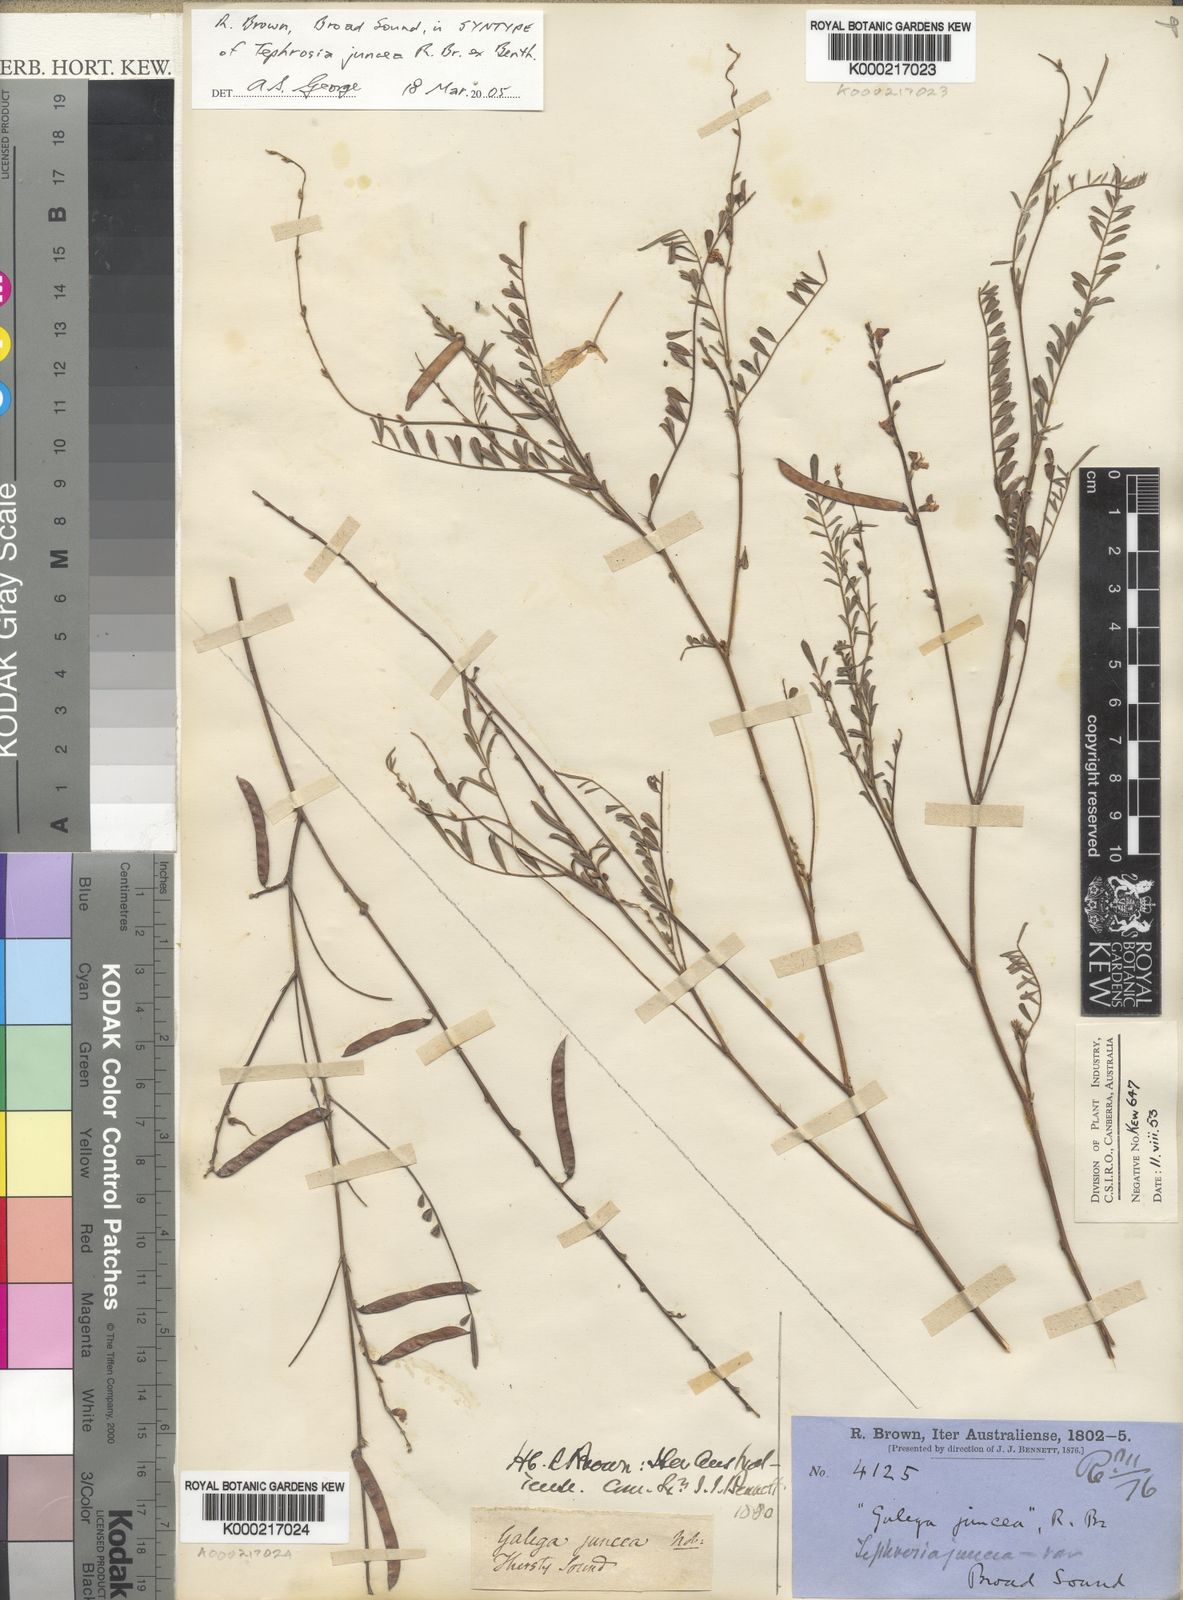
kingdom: Plantae
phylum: Tracheophyta
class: Magnoliopsida
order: Fabales
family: Fabaceae
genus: Tephrosia
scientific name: Tephrosia juncea
